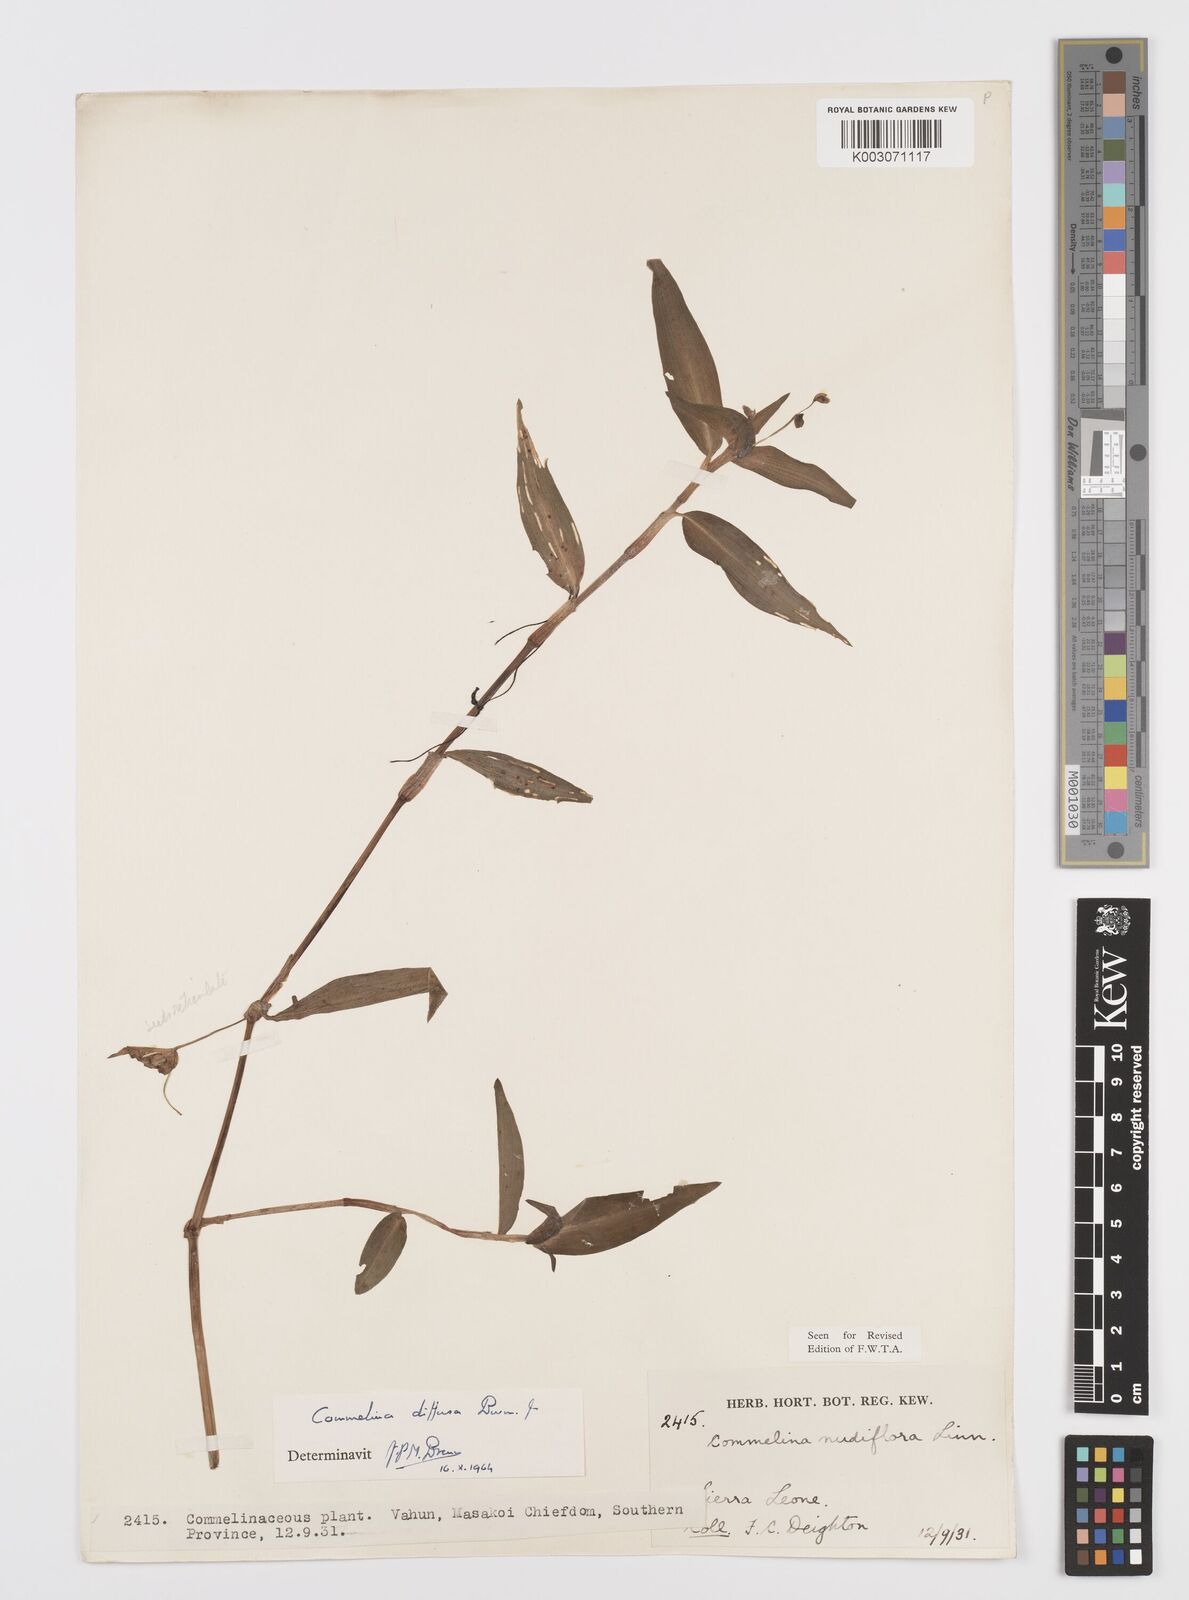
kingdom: Plantae
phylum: Tracheophyta
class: Liliopsida
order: Commelinales
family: Commelinaceae
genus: Commelina
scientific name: Commelina diffusa
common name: Climbing dayflower
